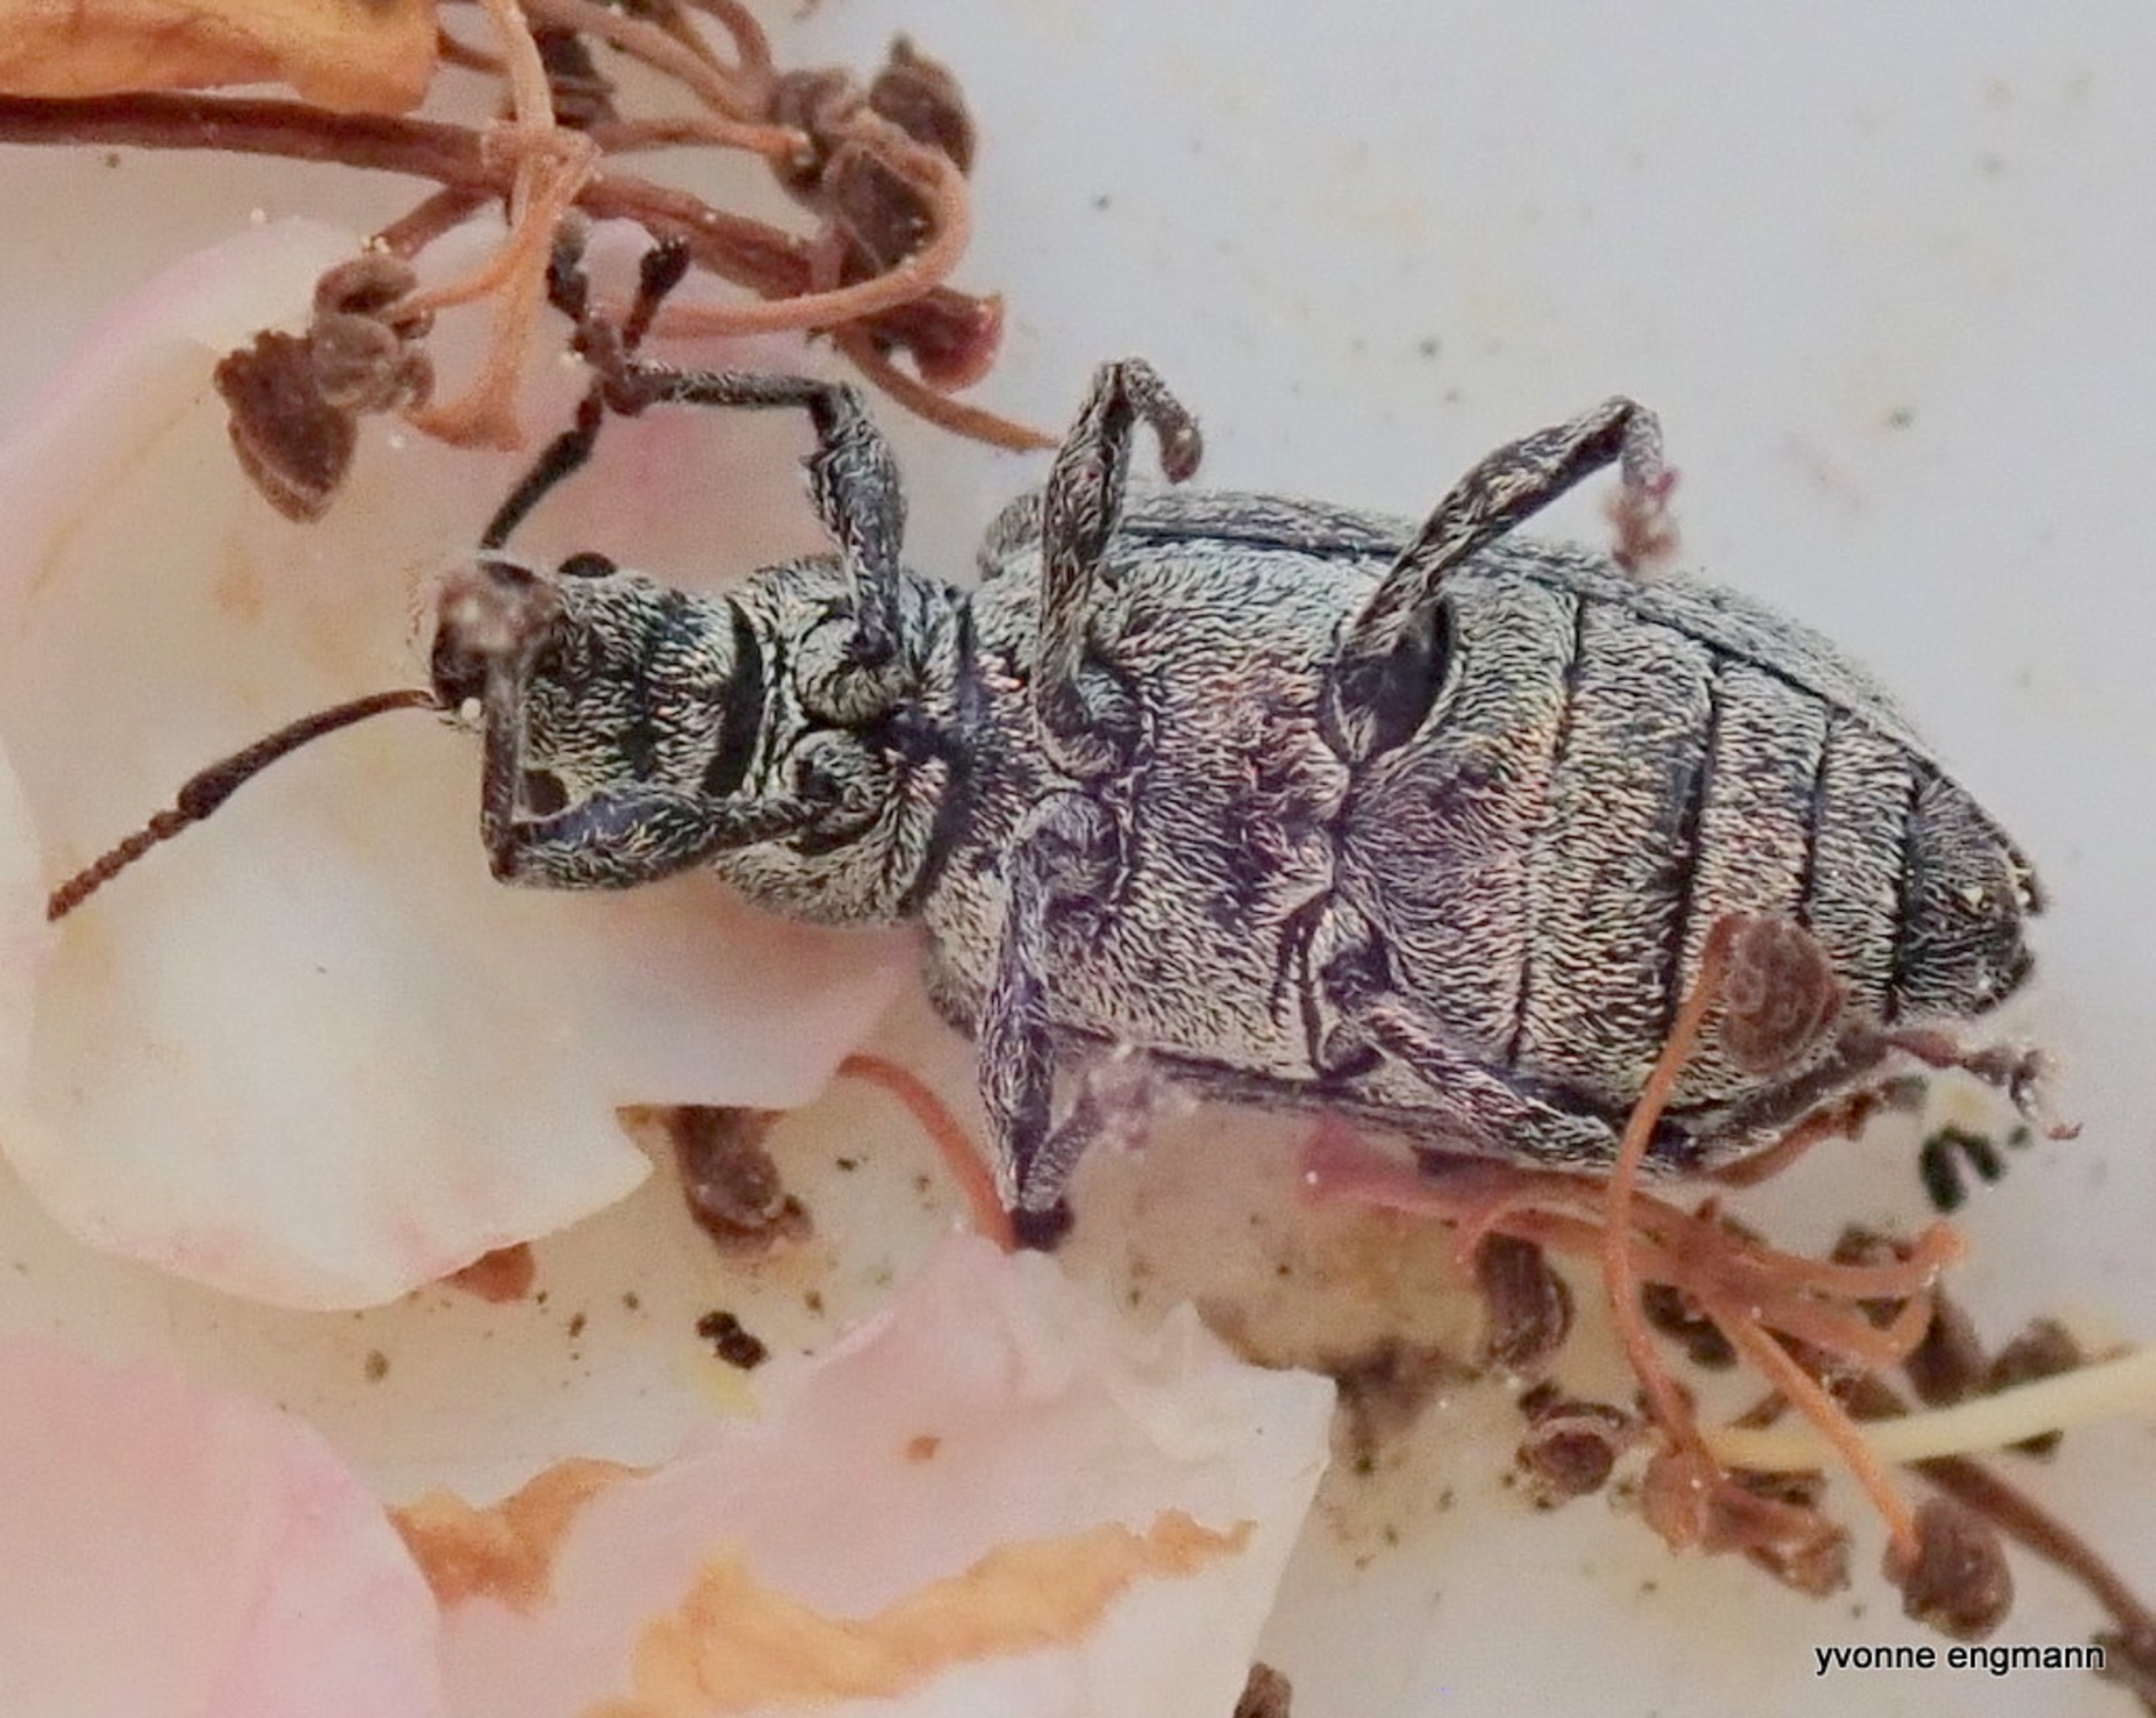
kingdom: Animalia
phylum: Arthropoda
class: Insecta
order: Coleoptera
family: Curculionidae
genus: Phyllobius
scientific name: Phyllobius pyri
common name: Pæreløvsnudebille
